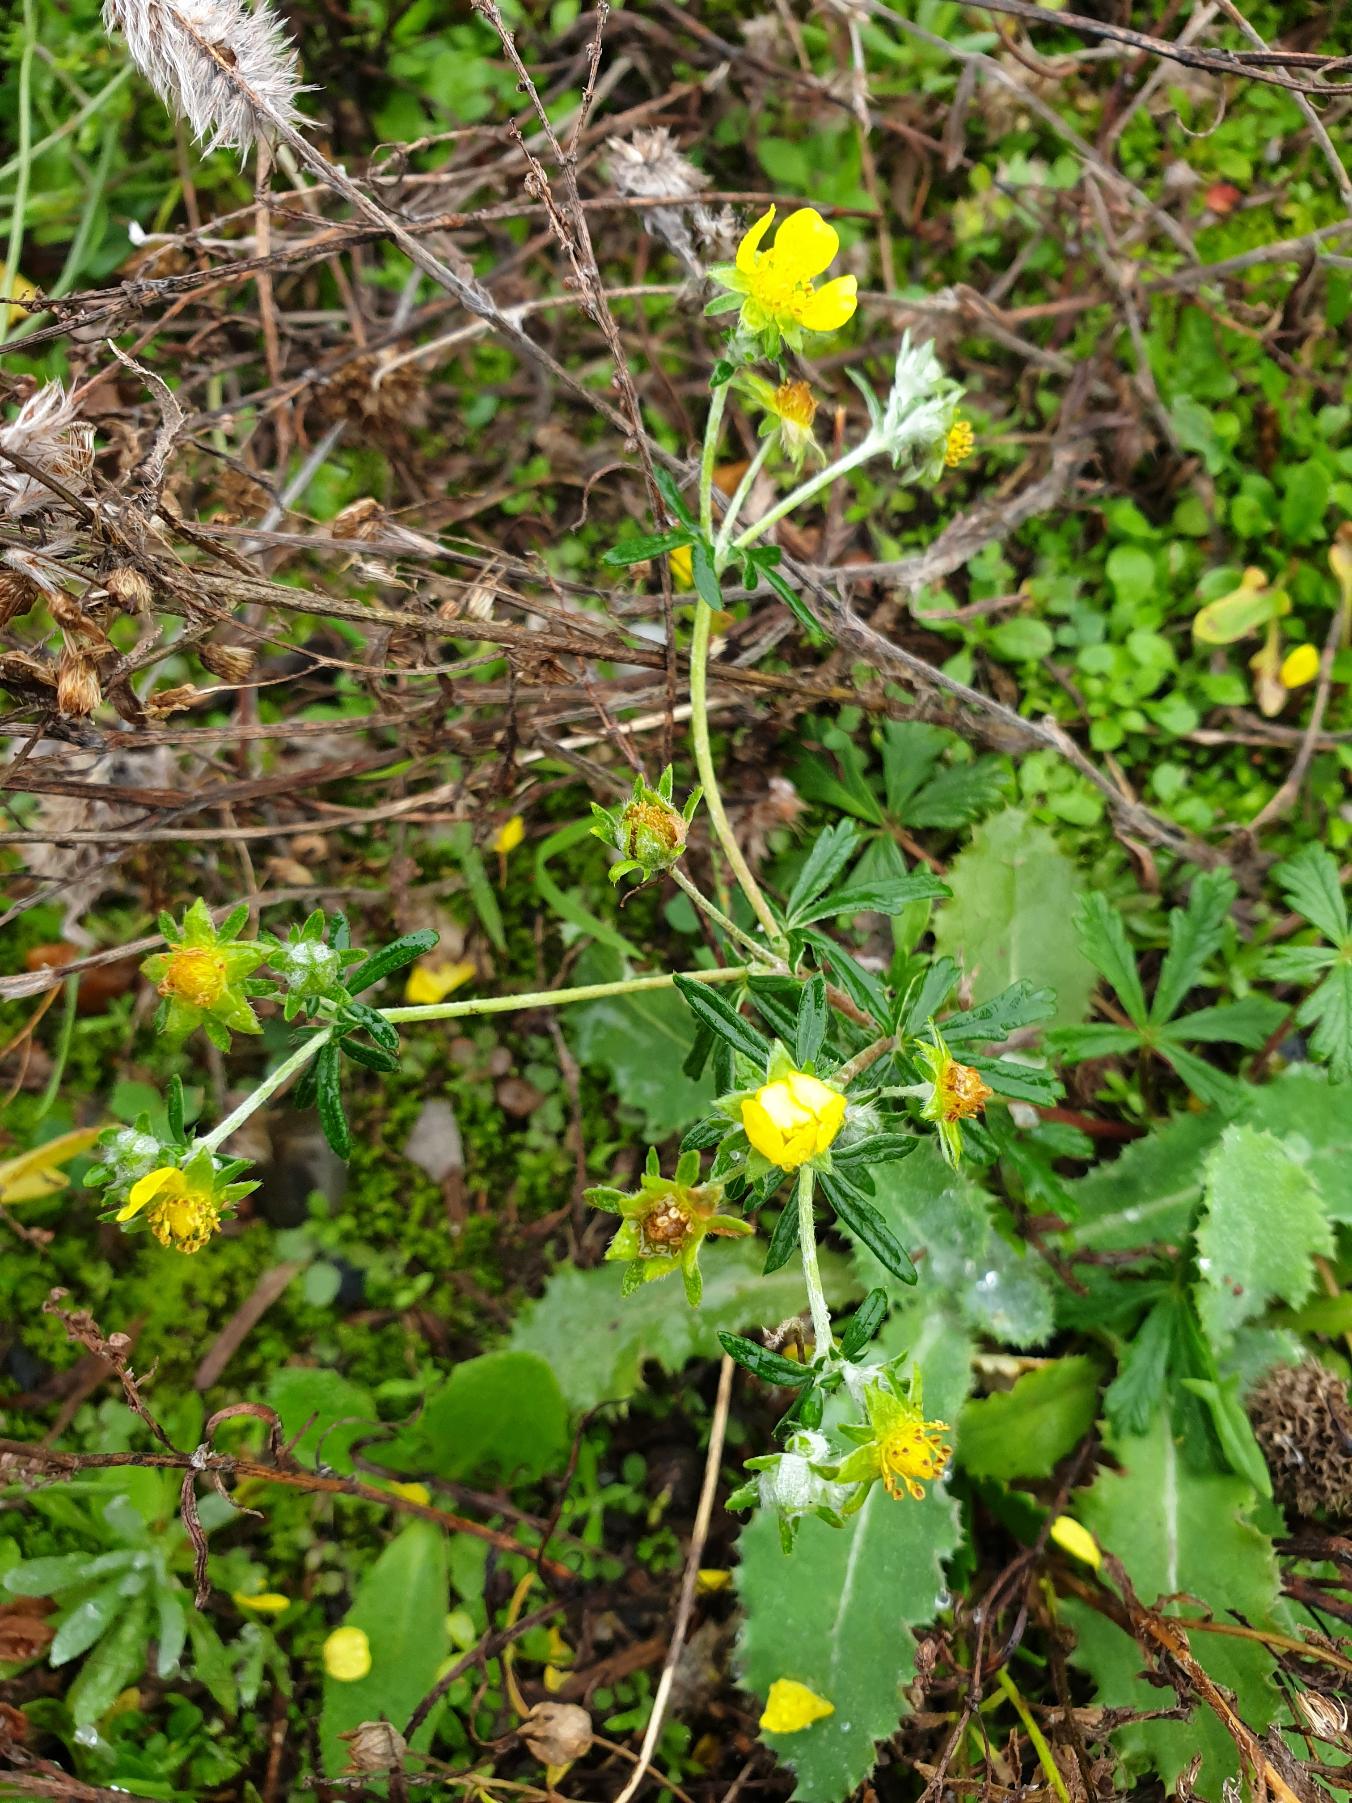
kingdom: Plantae
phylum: Tracheophyta
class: Magnoliopsida
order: Rosales
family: Rosaceae
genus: Potentilla
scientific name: Potentilla argentea
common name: Sølv-potentil
